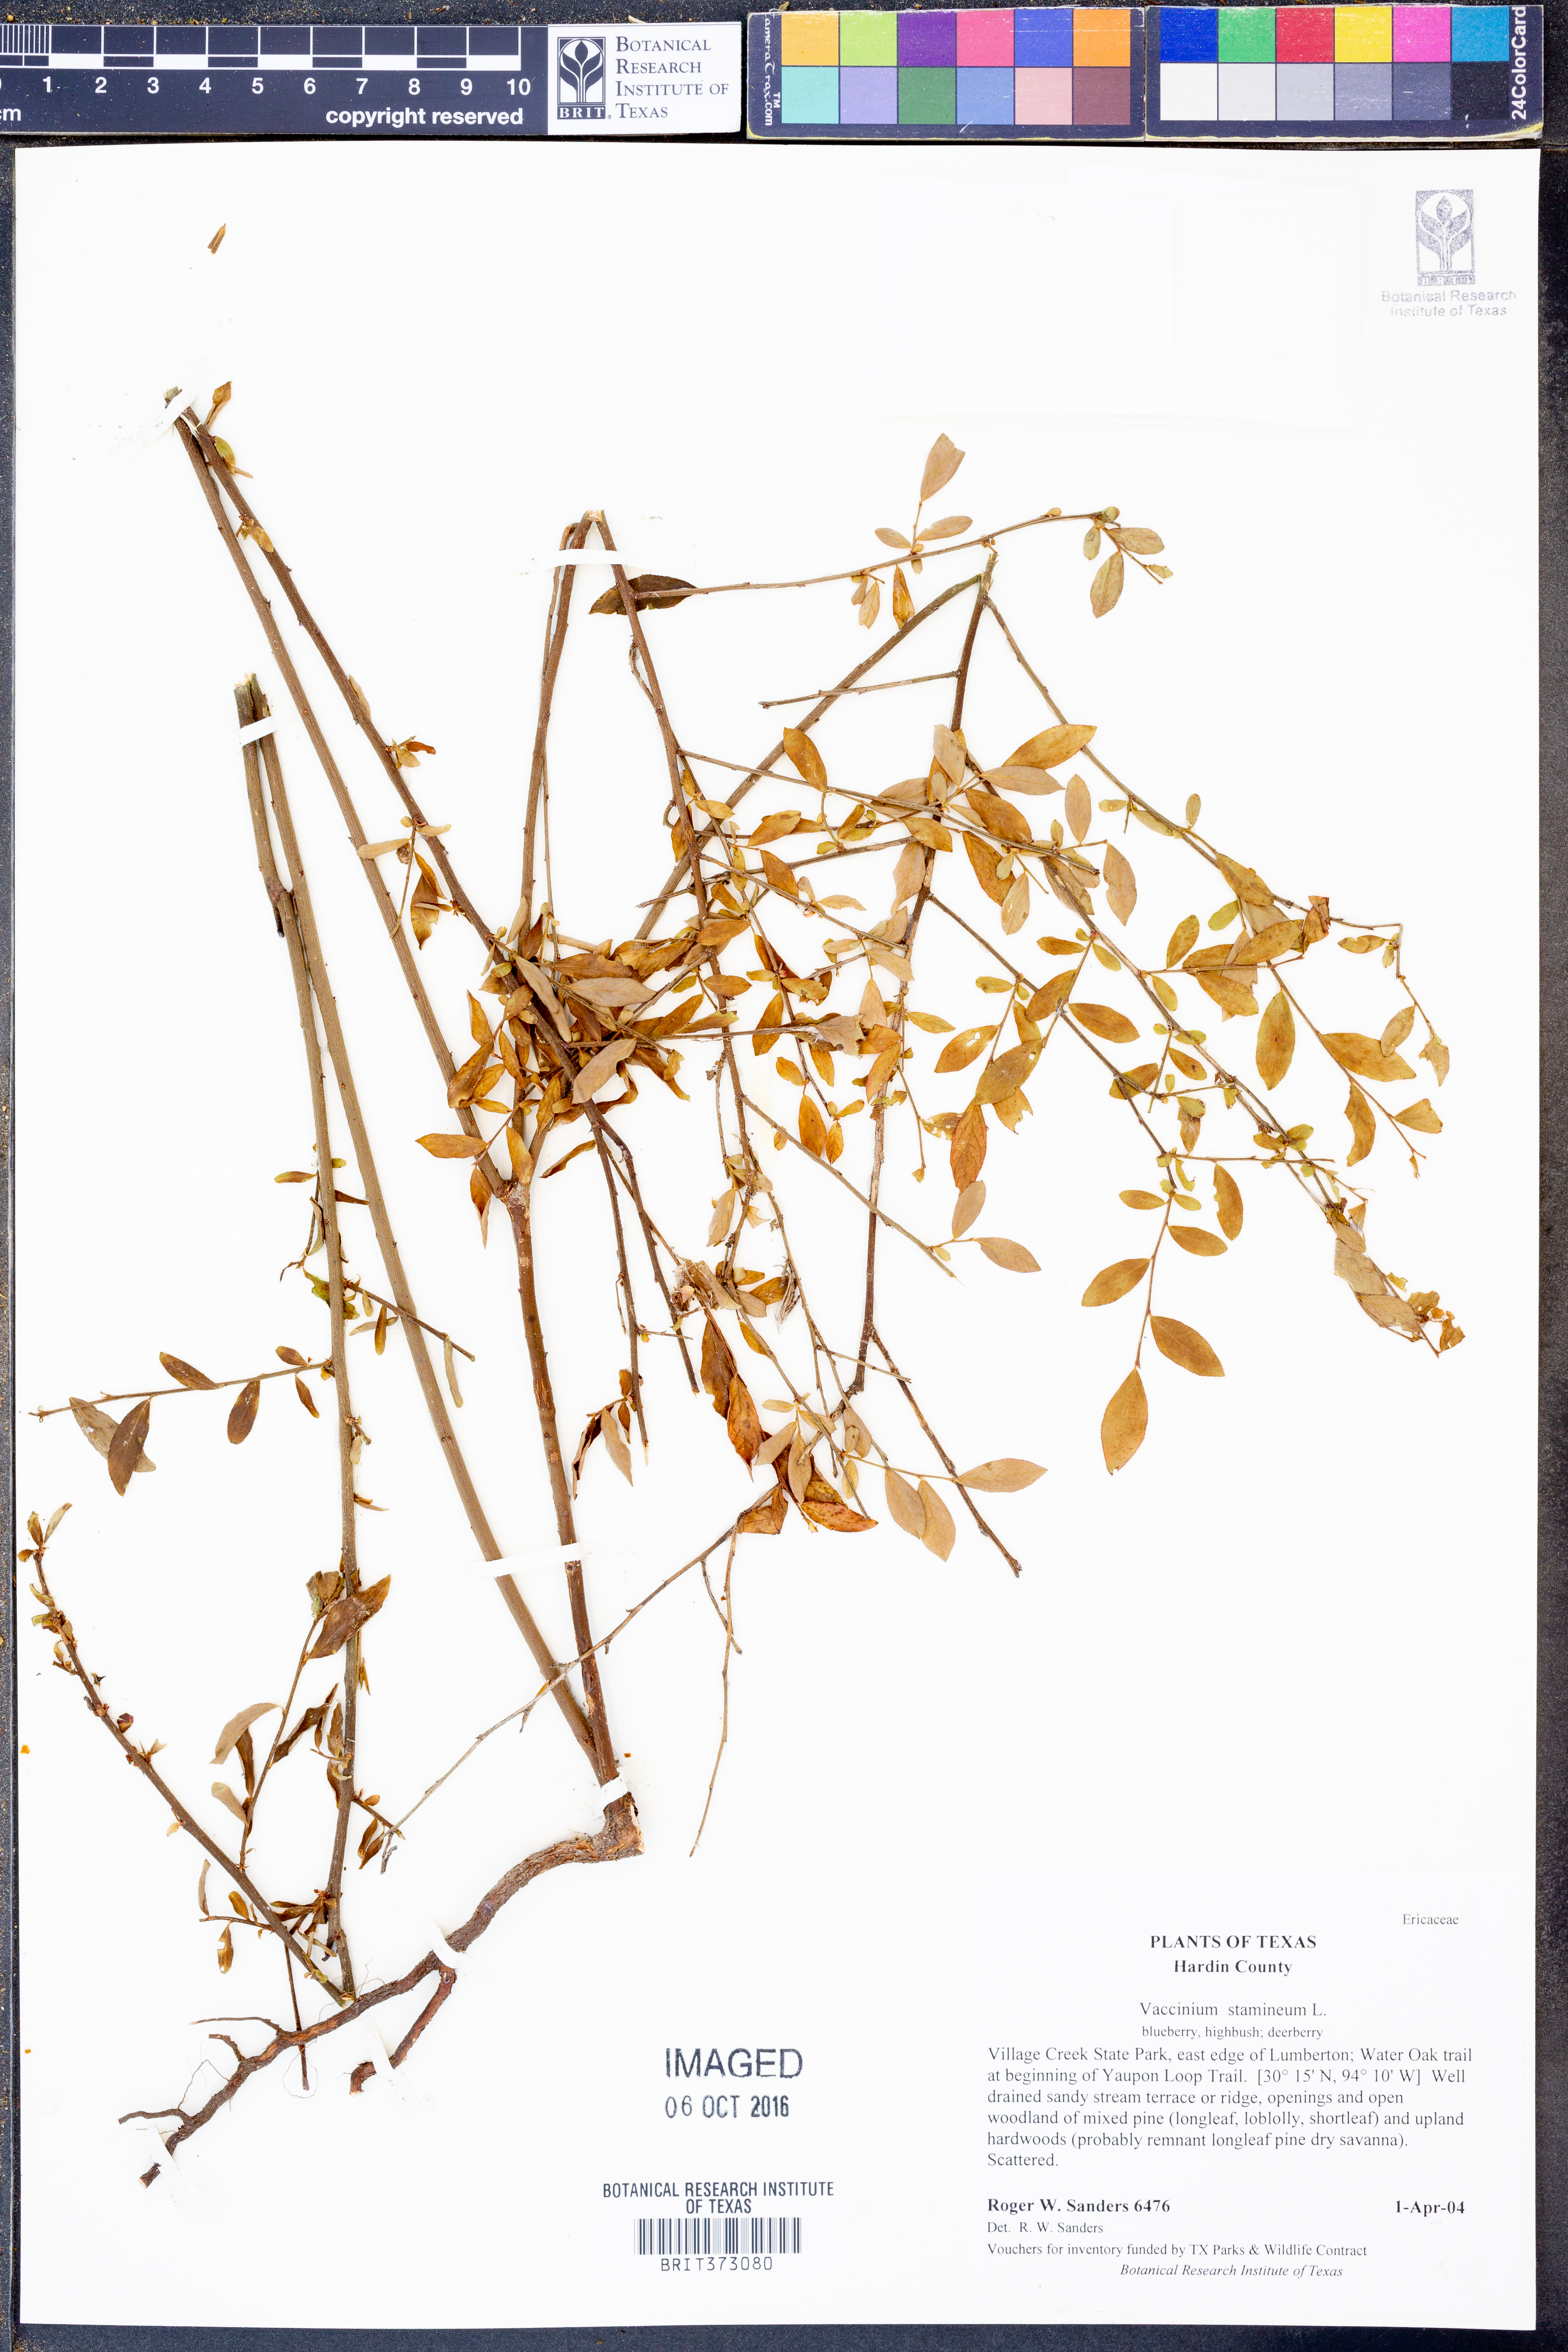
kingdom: Plantae
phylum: Tracheophyta
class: Magnoliopsida
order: Ericales
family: Ericaceae
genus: Vaccinium
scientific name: Vaccinium stamineum
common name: Deerberry
